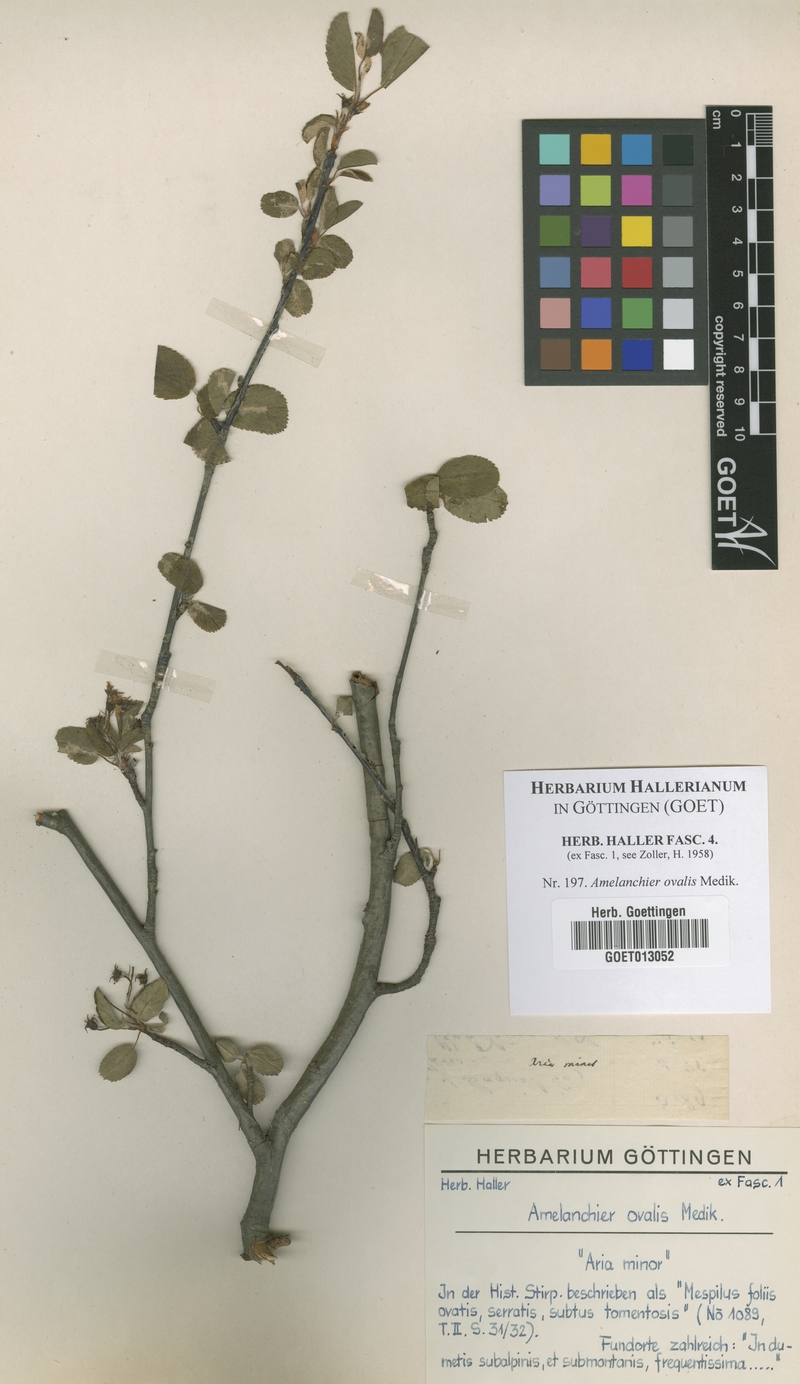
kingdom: Plantae
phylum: Tracheophyta
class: Magnoliopsida
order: Rosales
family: Rosaceae
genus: Amelanchier
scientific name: Amelanchier ovalis
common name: Serviceberry
